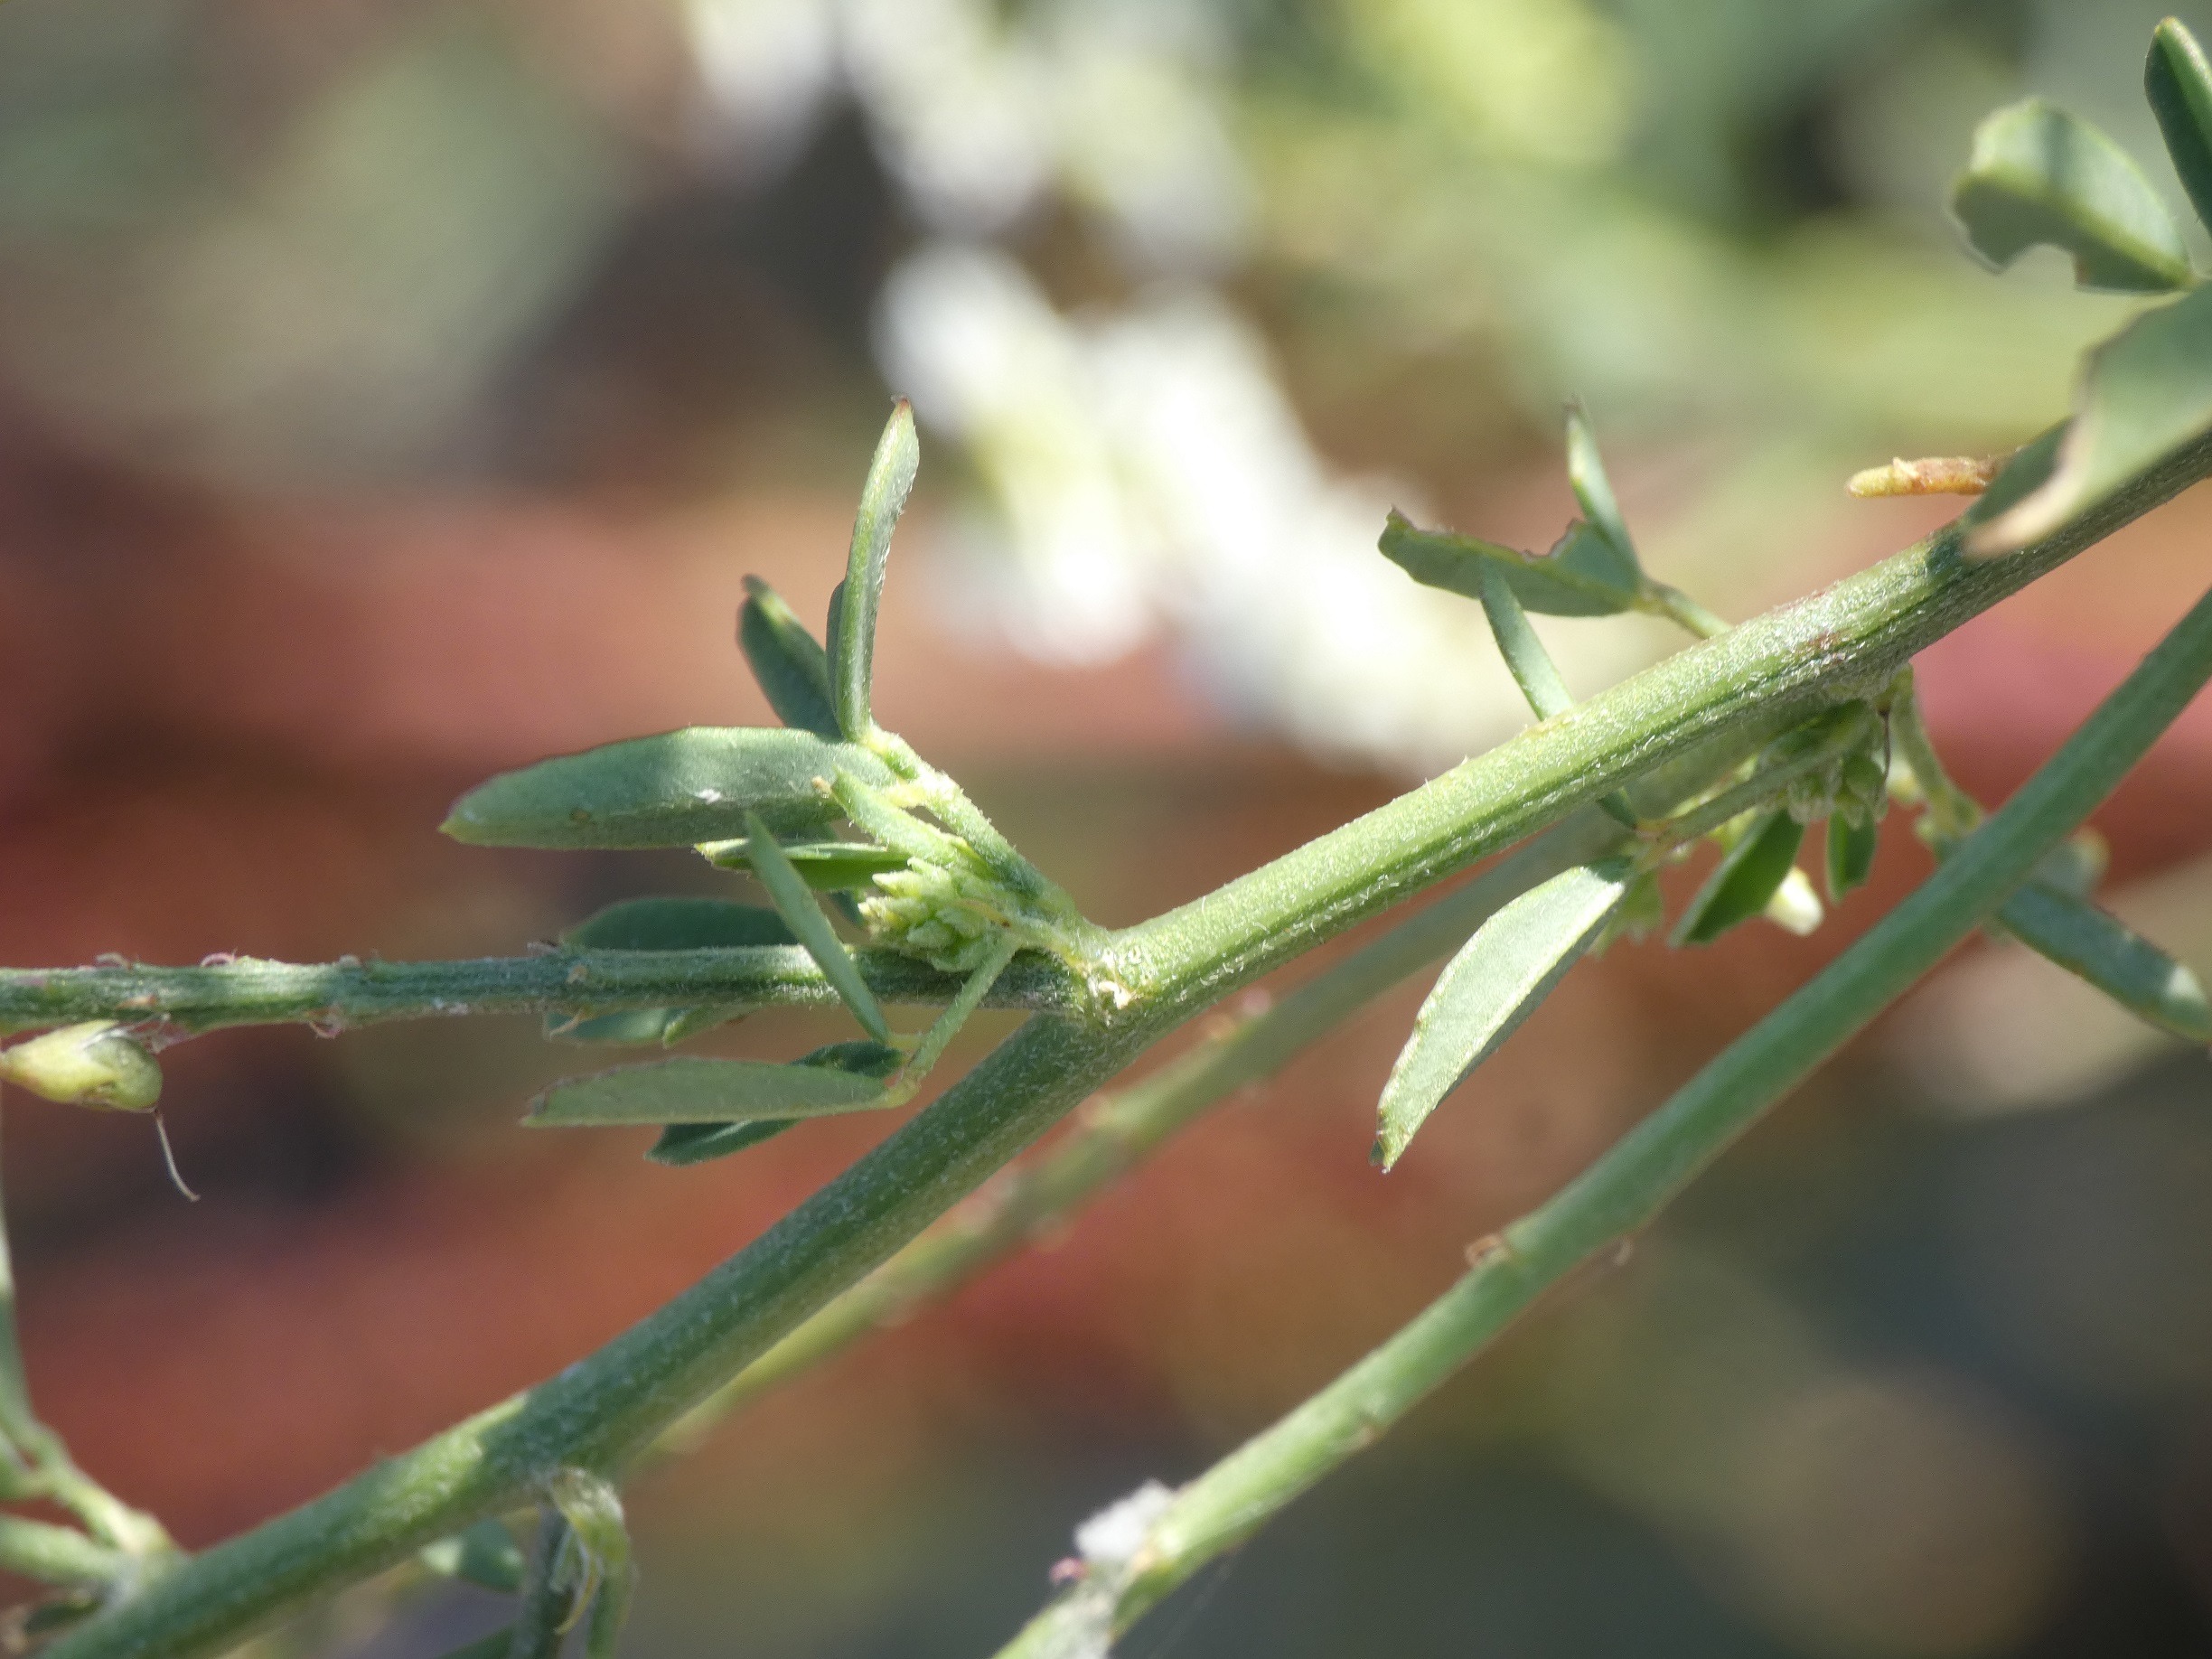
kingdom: Plantae
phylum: Tracheophyta
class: Magnoliopsida
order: Fabales
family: Fabaceae
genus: Melilotus
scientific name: Melilotus albus
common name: Hvid stenkløver
